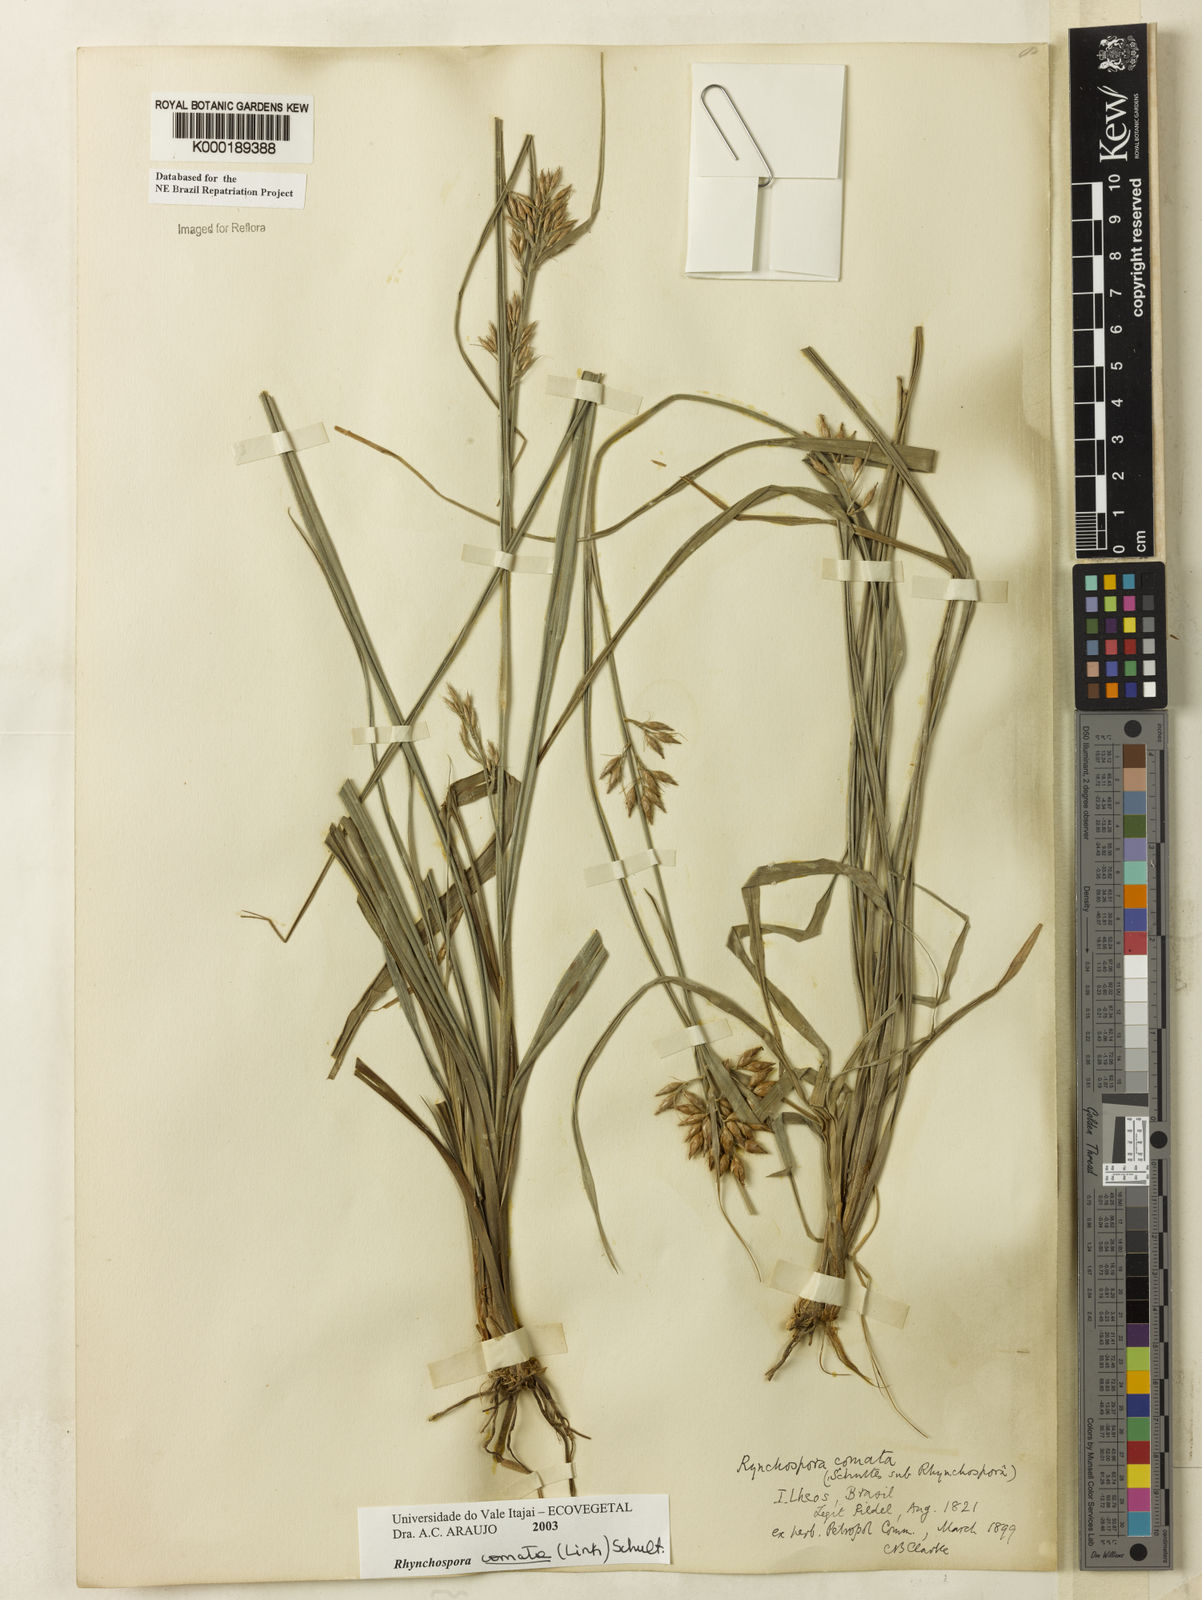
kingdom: Plantae
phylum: Tracheophyta
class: Liliopsida
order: Poales
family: Cyperaceae
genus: Rhynchospora
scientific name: Rhynchospora comata
